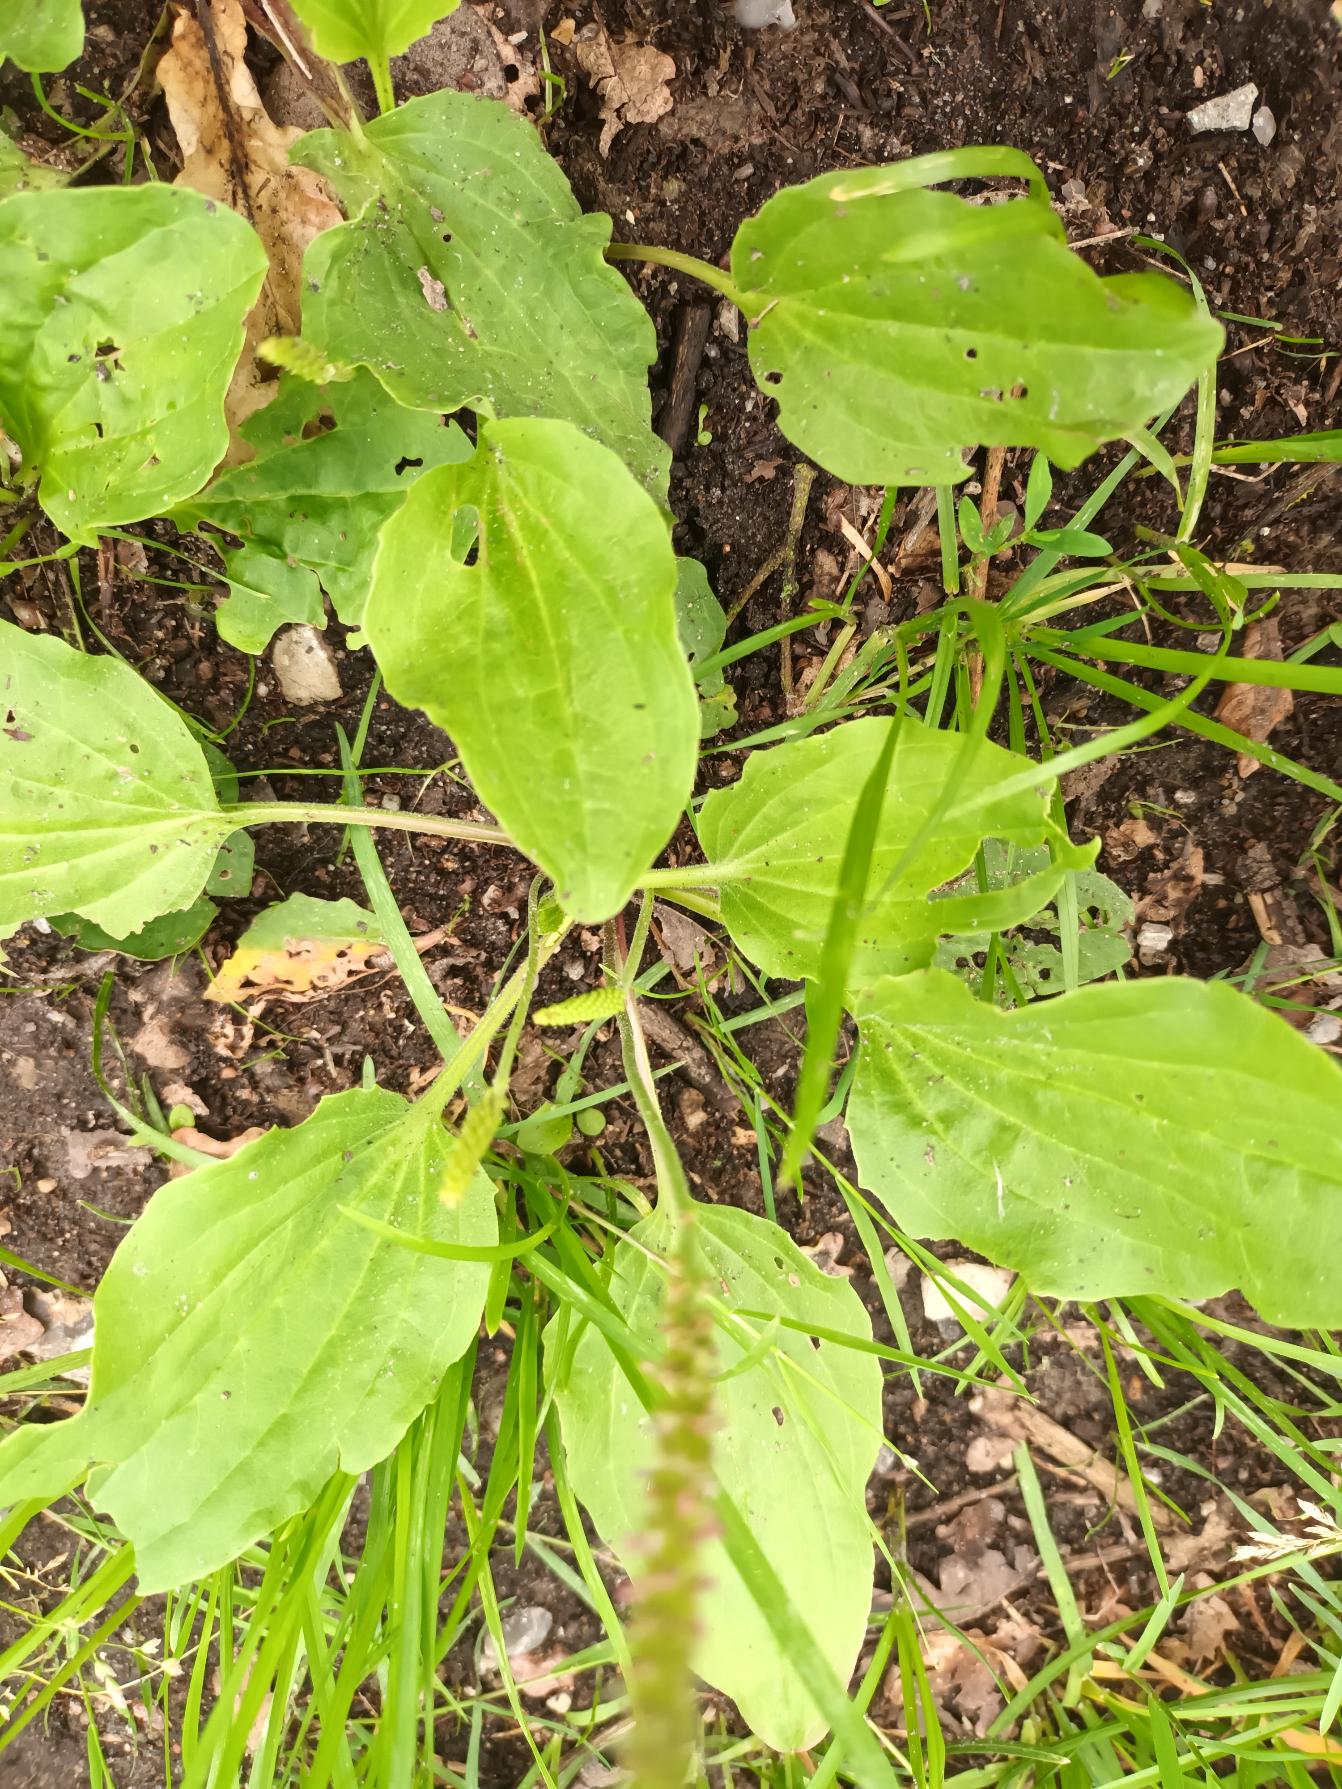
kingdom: Plantae
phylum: Tracheophyta
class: Magnoliopsida
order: Lamiales
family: Plantaginaceae
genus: Plantago
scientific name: Plantago major
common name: Glat vejbred
